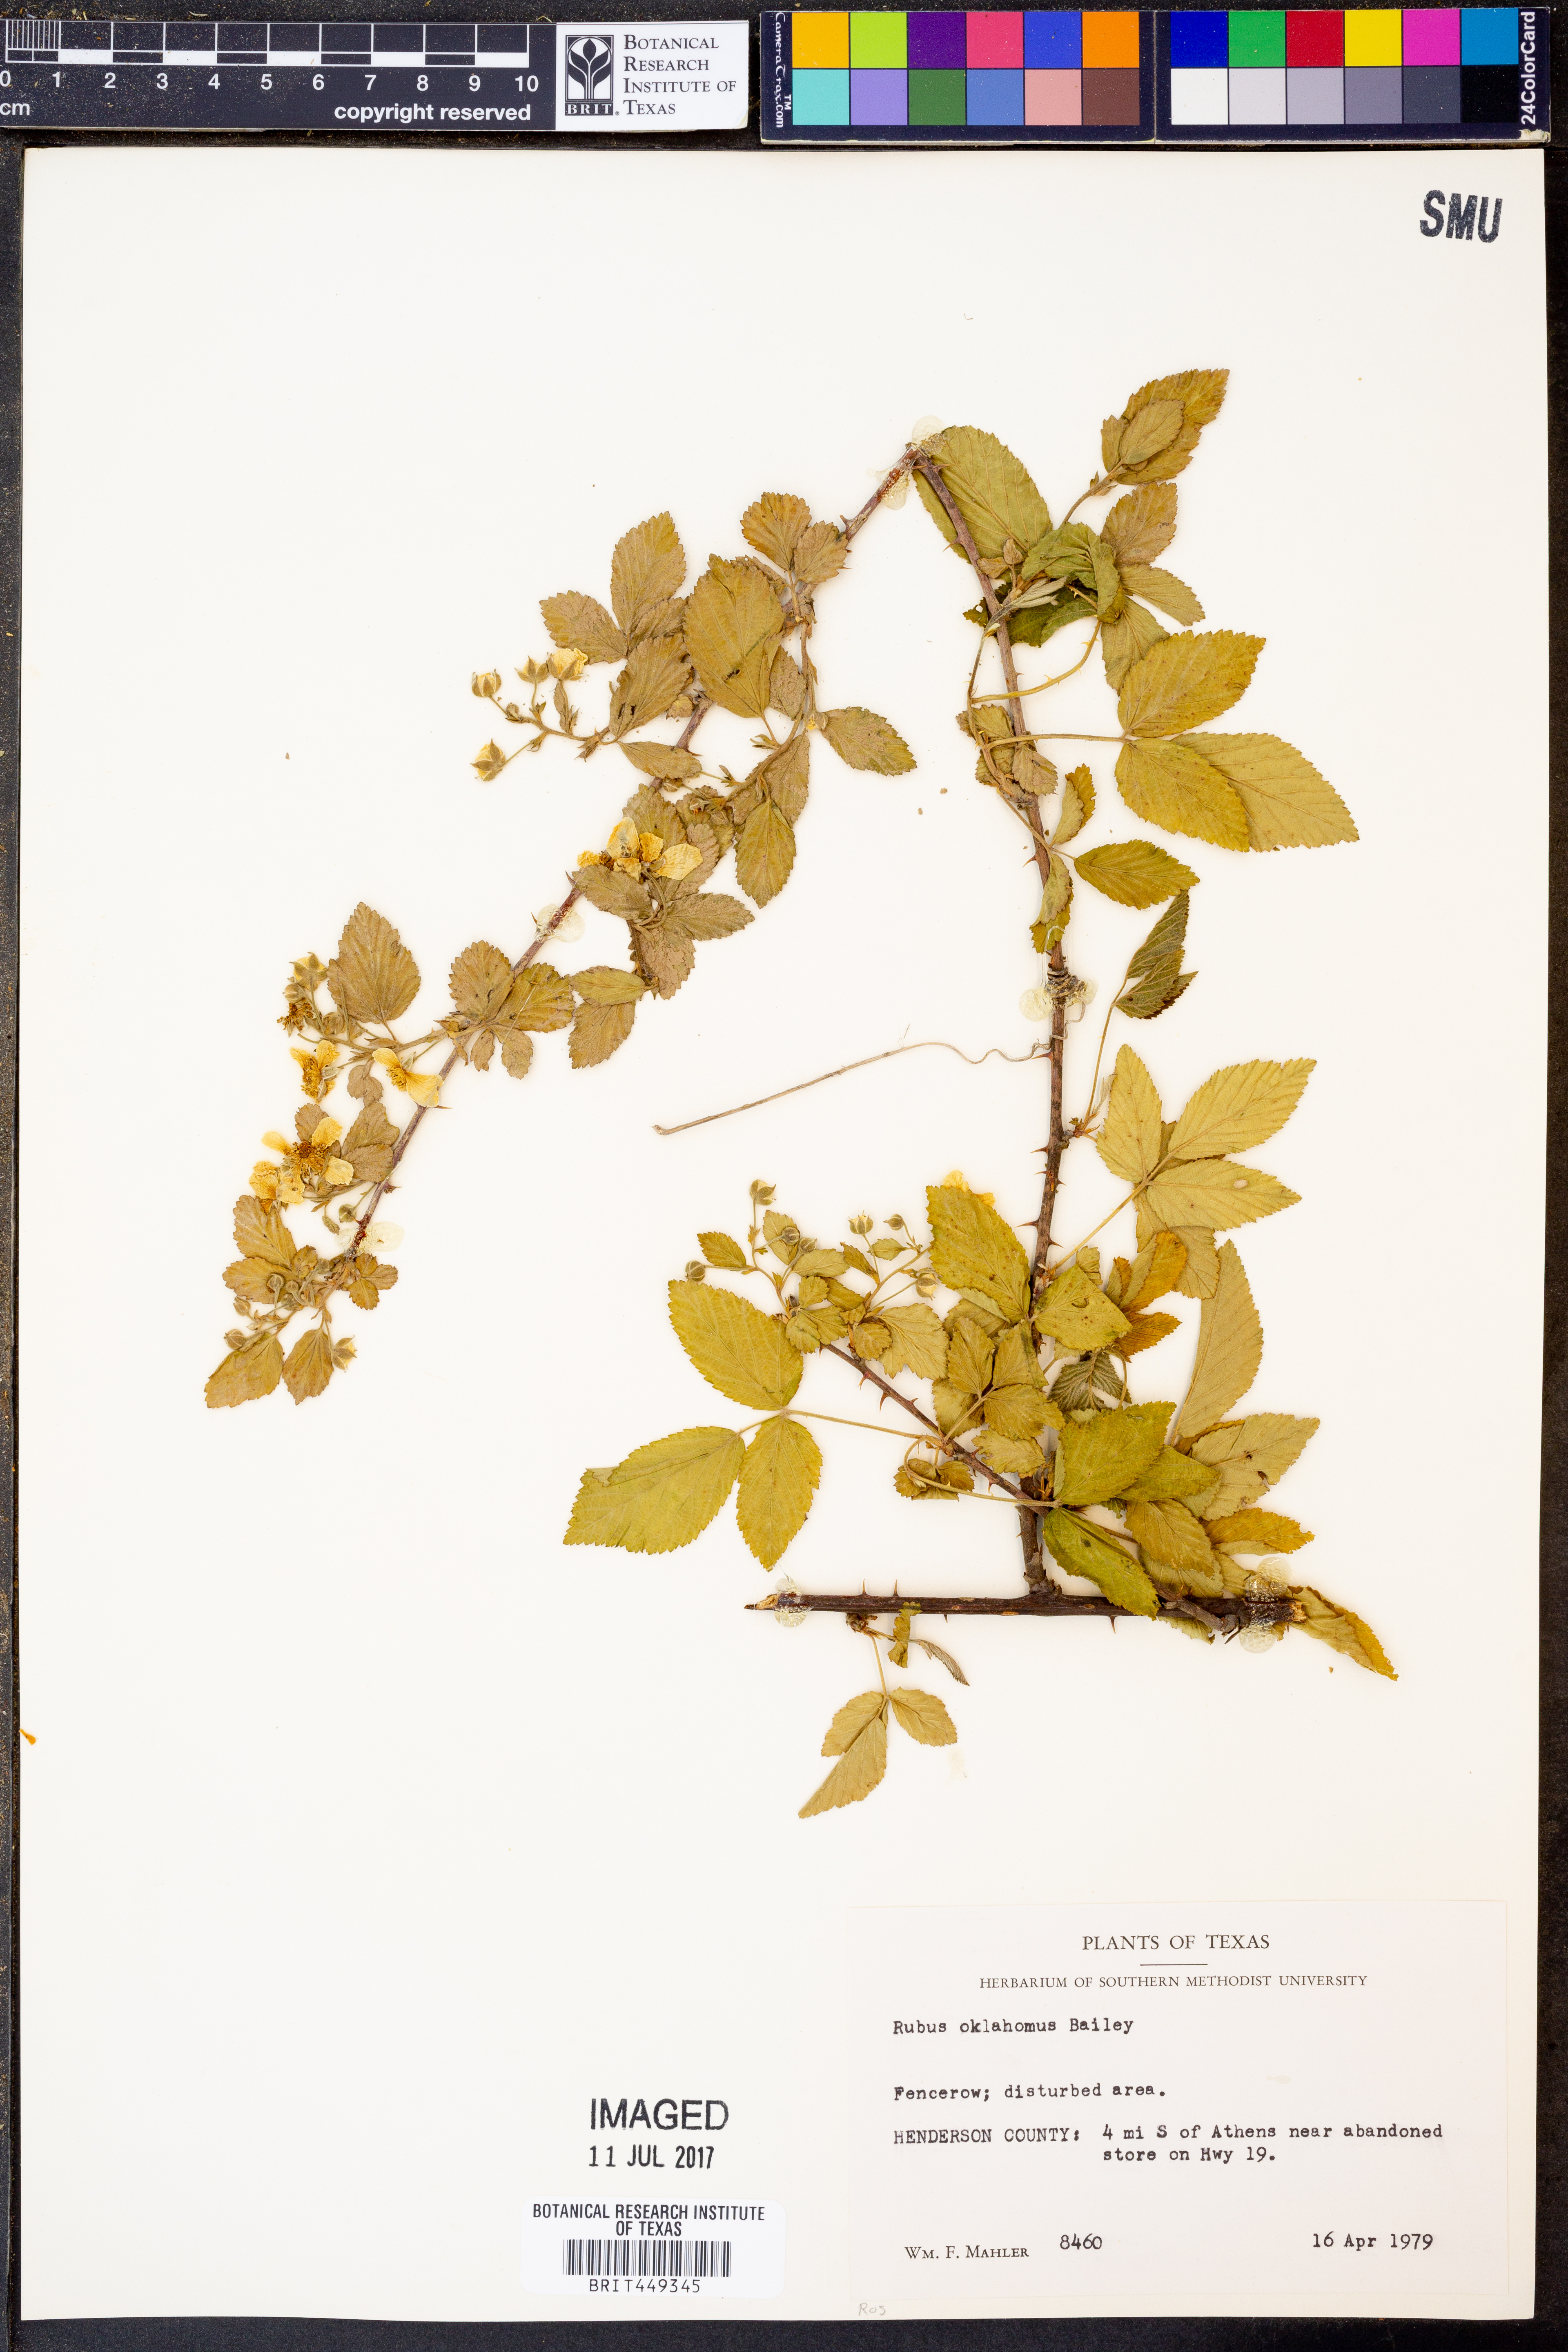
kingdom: Plantae
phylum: Tracheophyta
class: Magnoliopsida
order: Rosales
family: Rosaceae
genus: Rubus
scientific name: Rubus oklahomus
